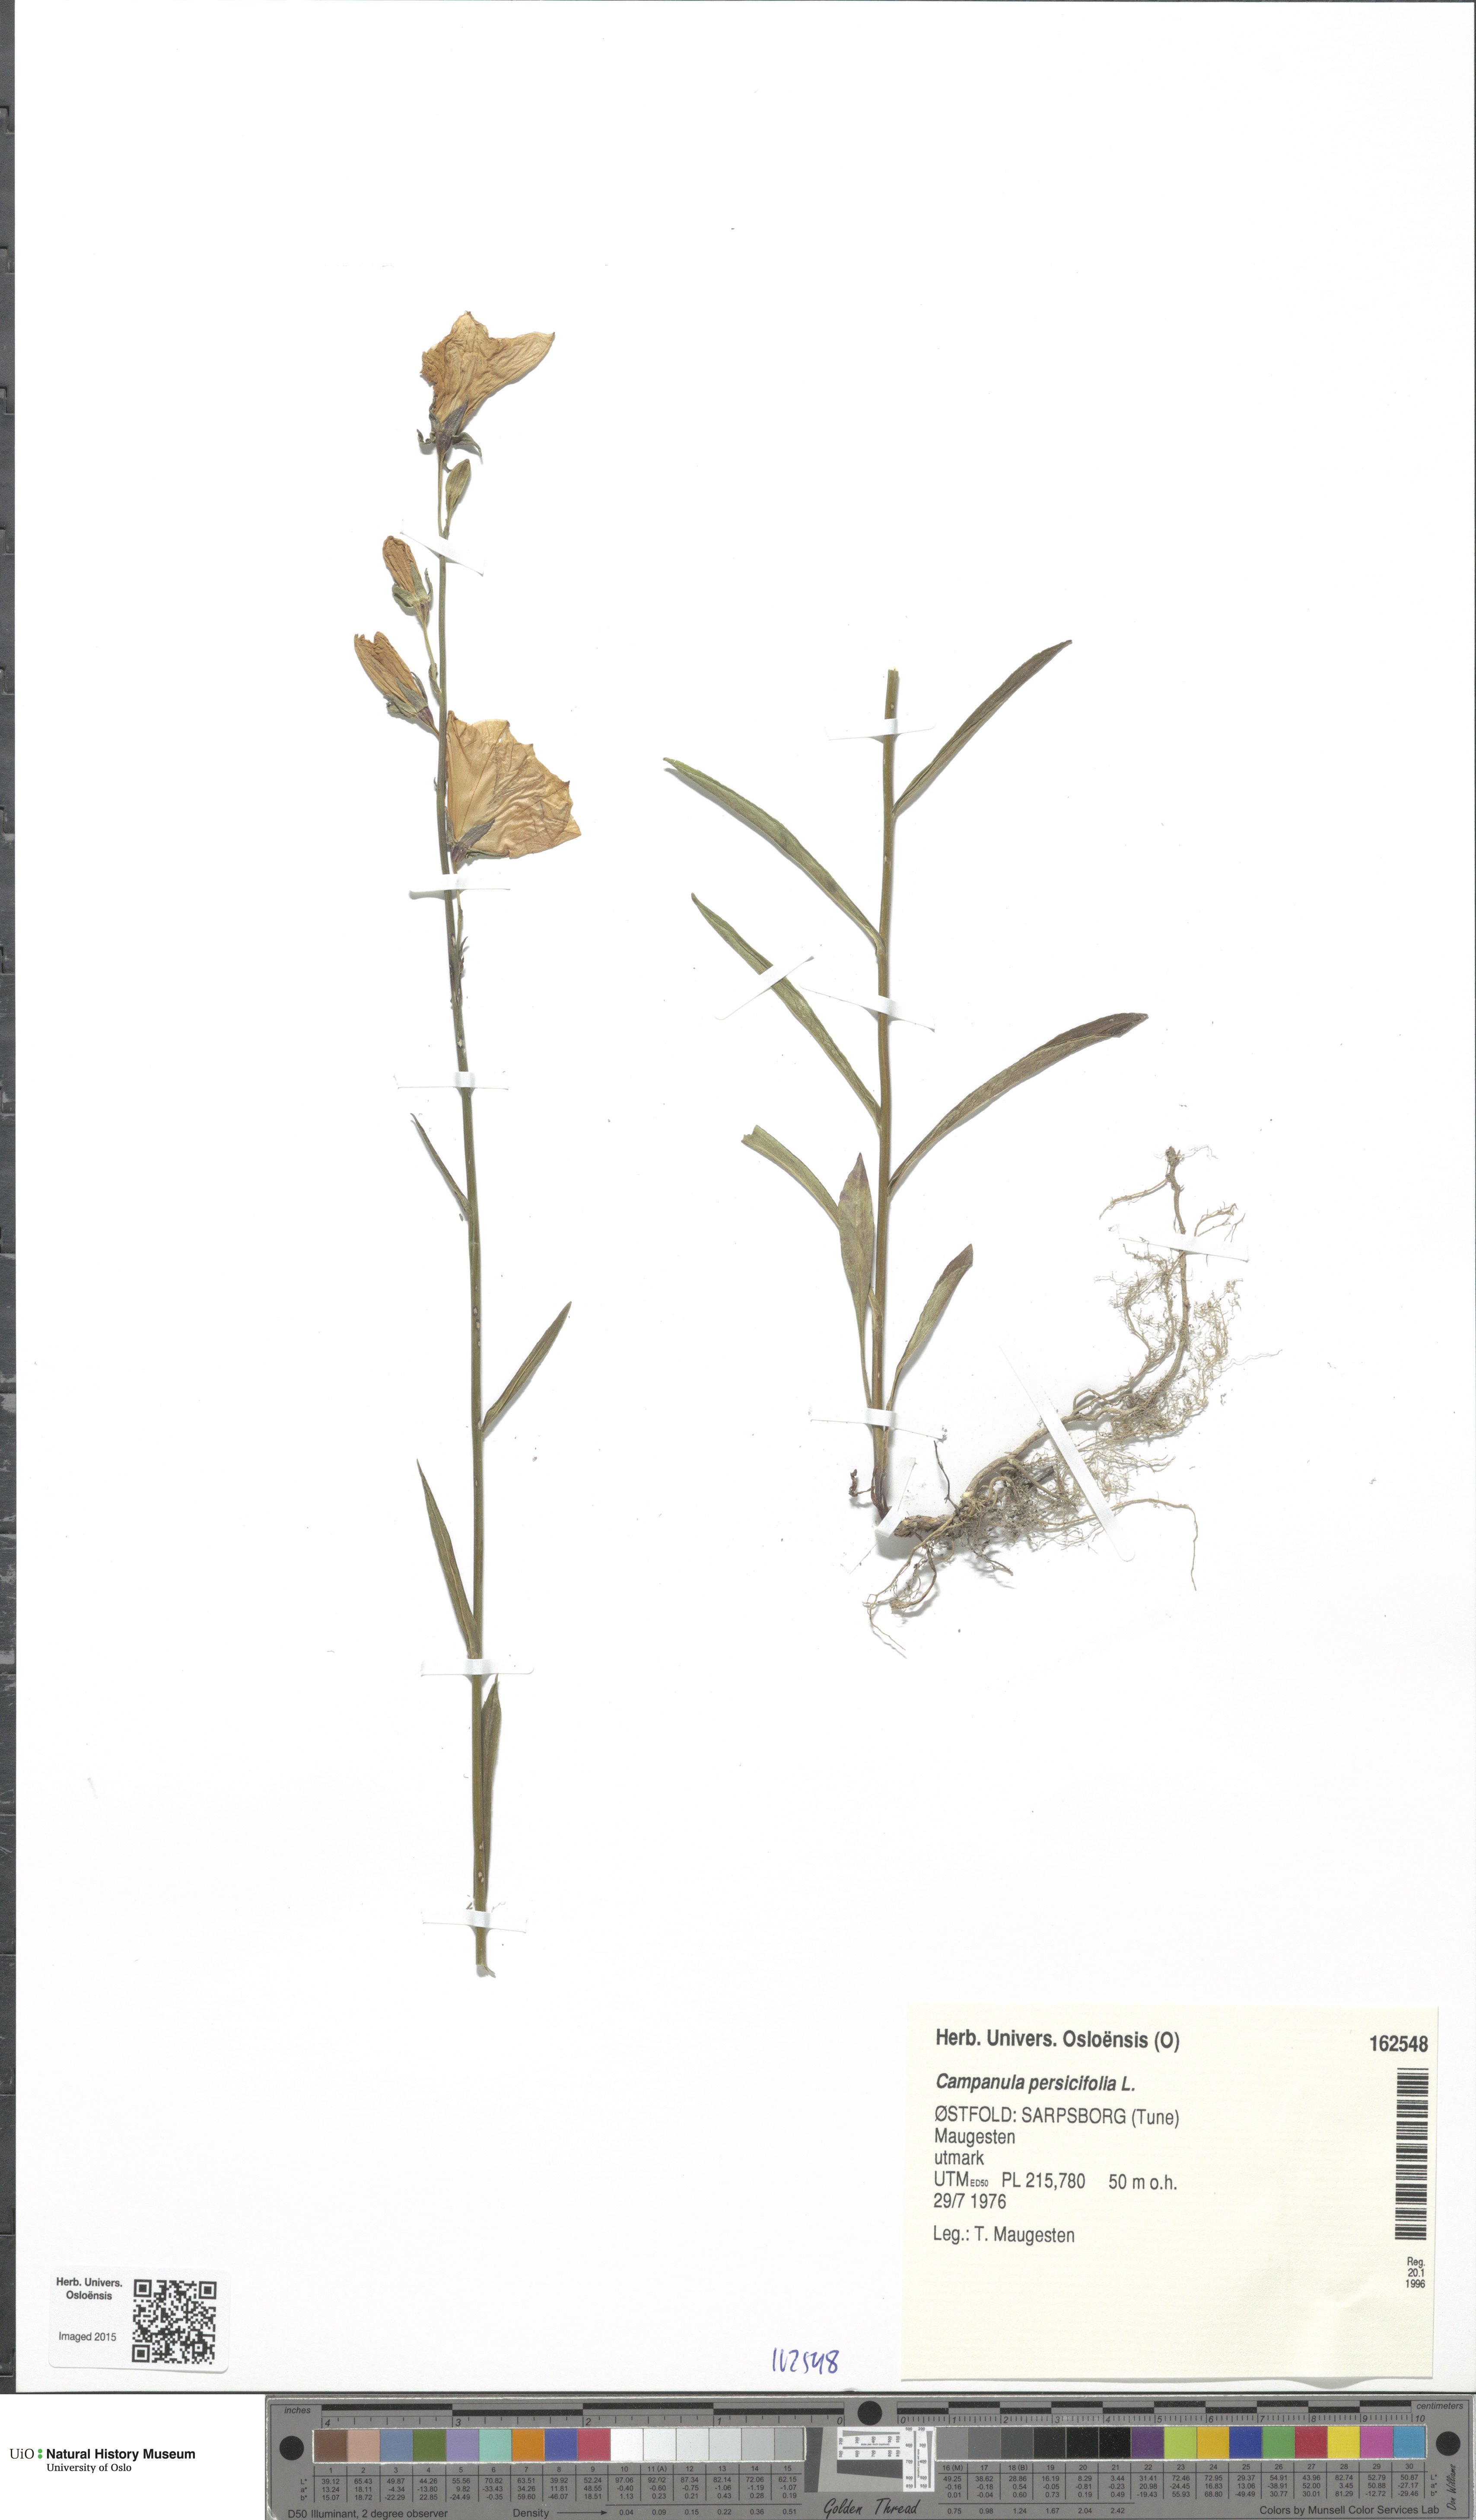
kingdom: Plantae
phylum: Tracheophyta
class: Magnoliopsida
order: Asterales
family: Campanulaceae
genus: Campanula
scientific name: Campanula persicifolia
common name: Peach-leaved bellflower
